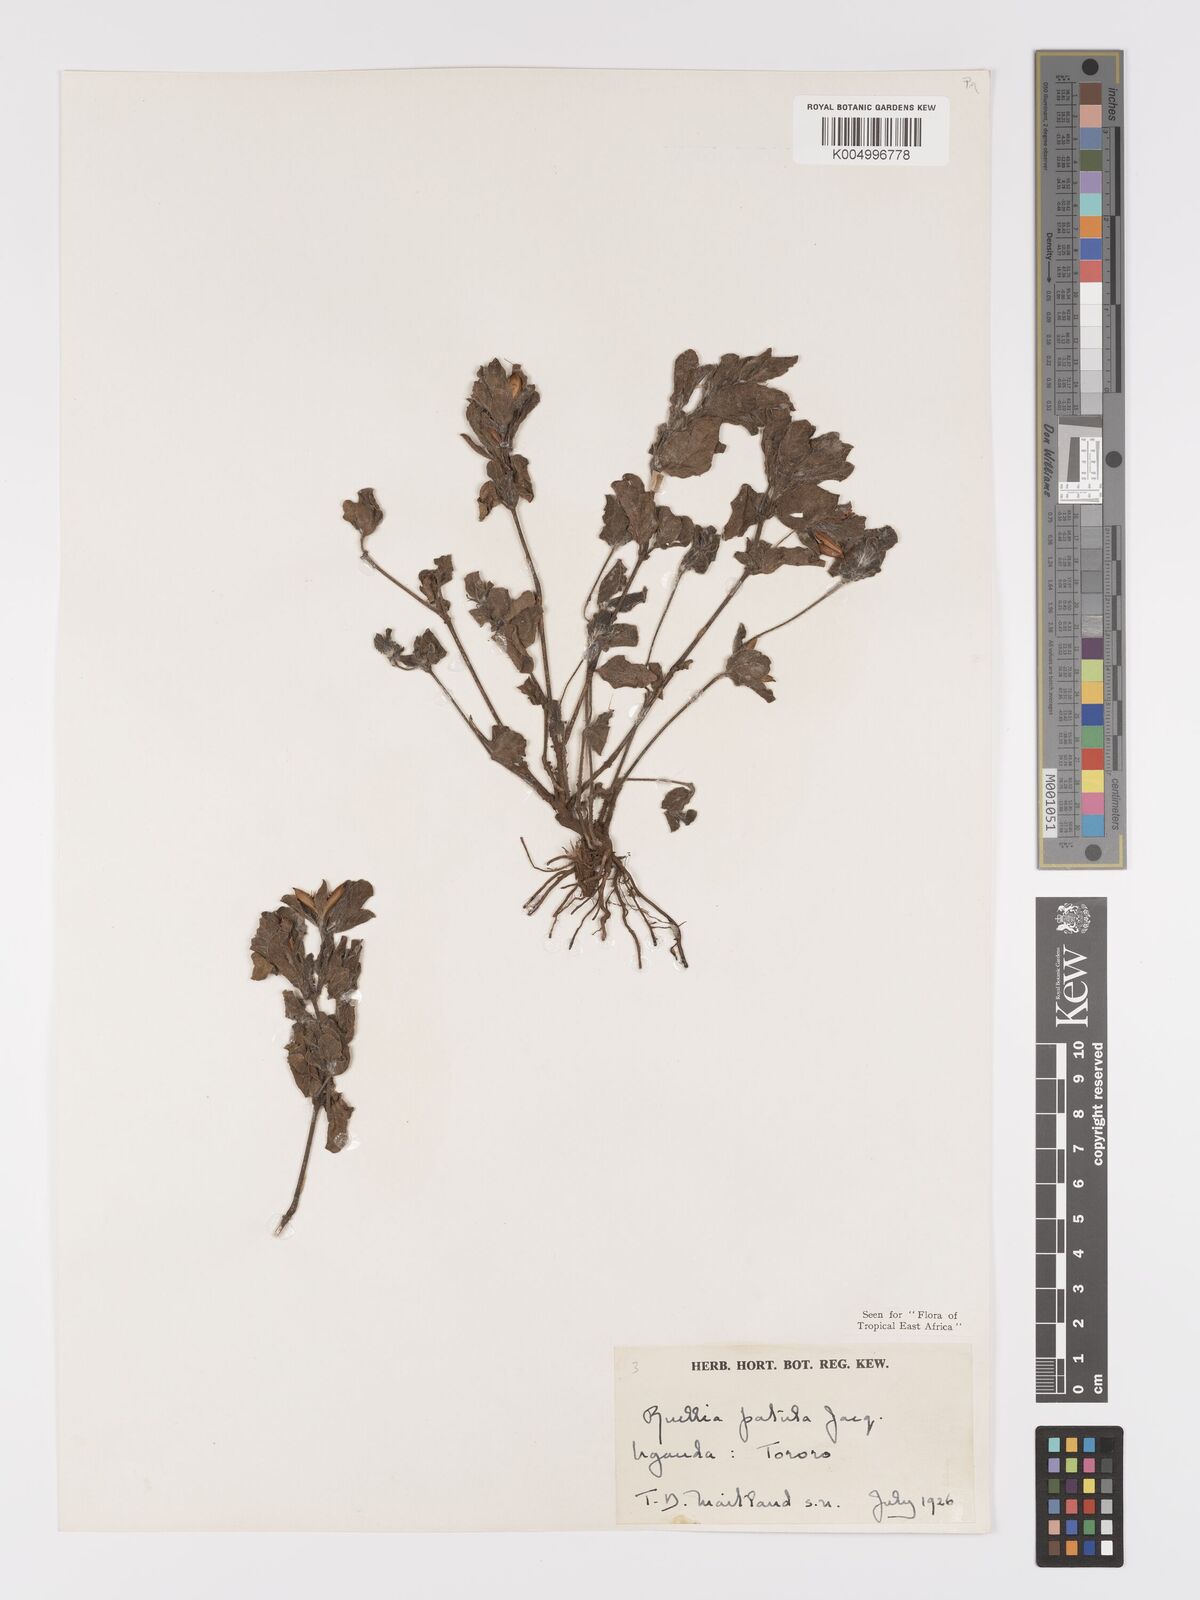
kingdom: Plantae
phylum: Tracheophyta
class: Magnoliopsida
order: Lamiales
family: Acanthaceae
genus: Ruellia
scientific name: Ruellia patula
